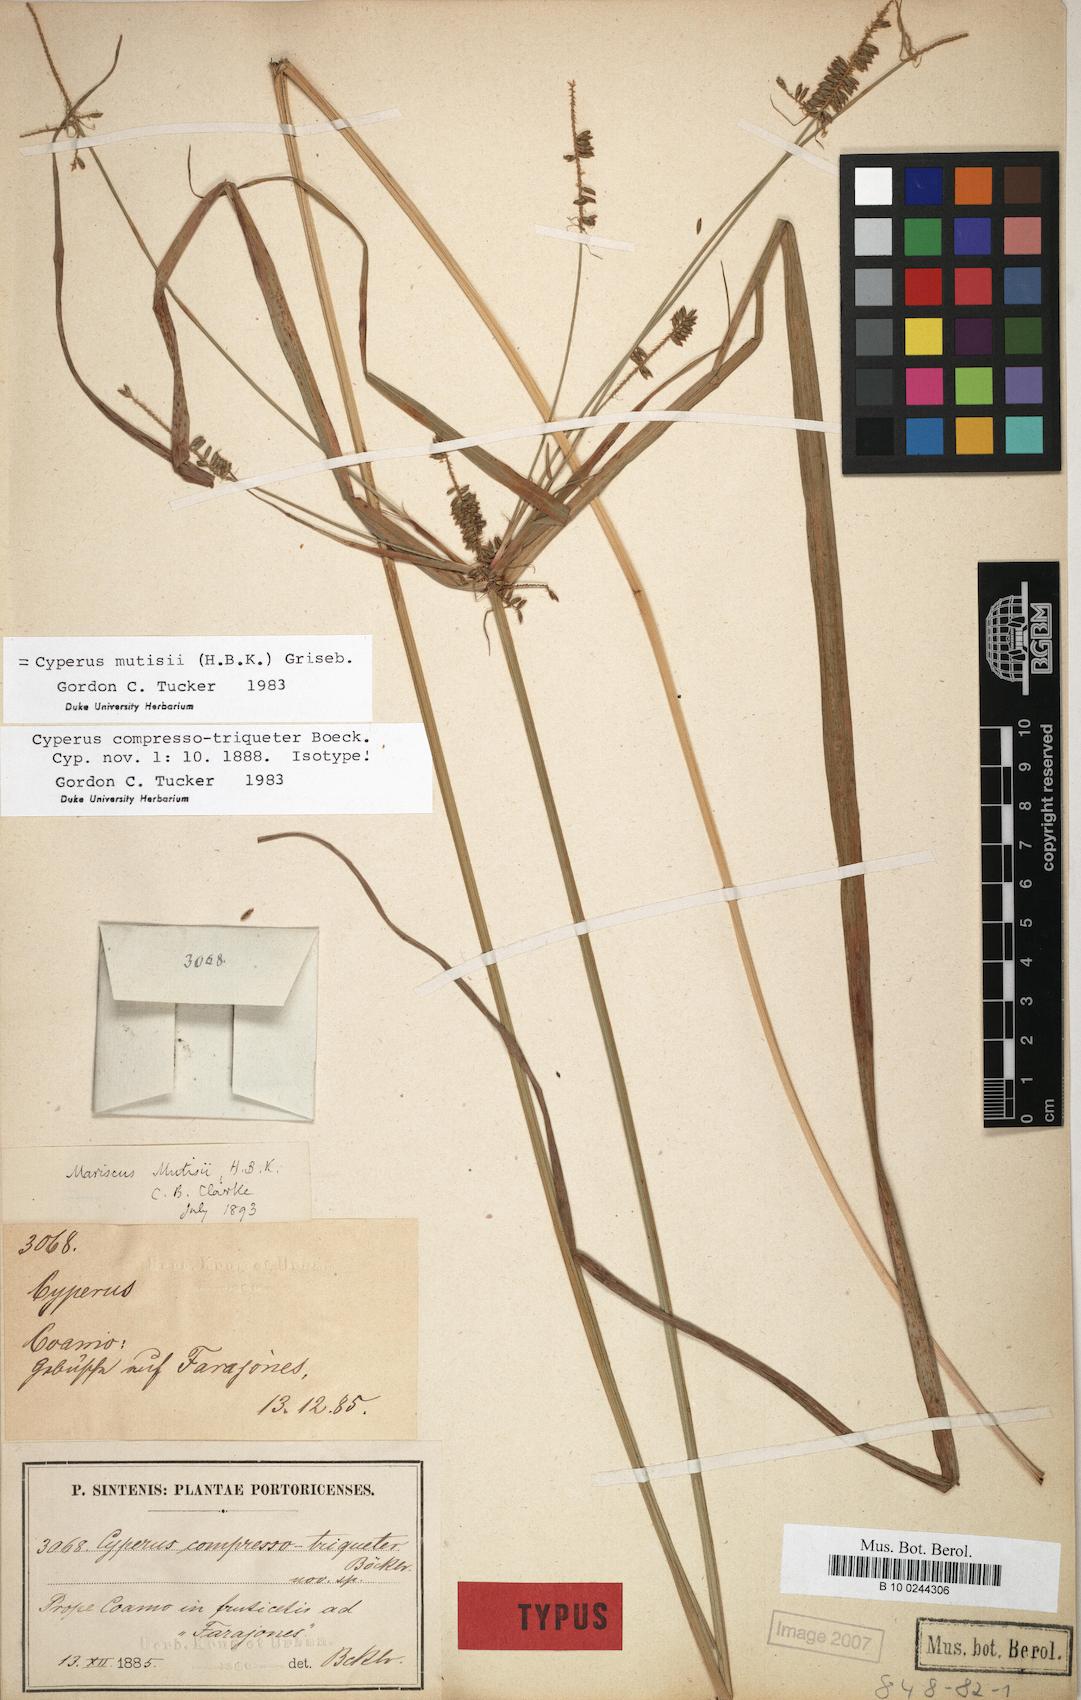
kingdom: Plantae
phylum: Tracheophyta
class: Liliopsida
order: Poales
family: Cyperaceae
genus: Cyperus
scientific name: Cyperus mutisii
